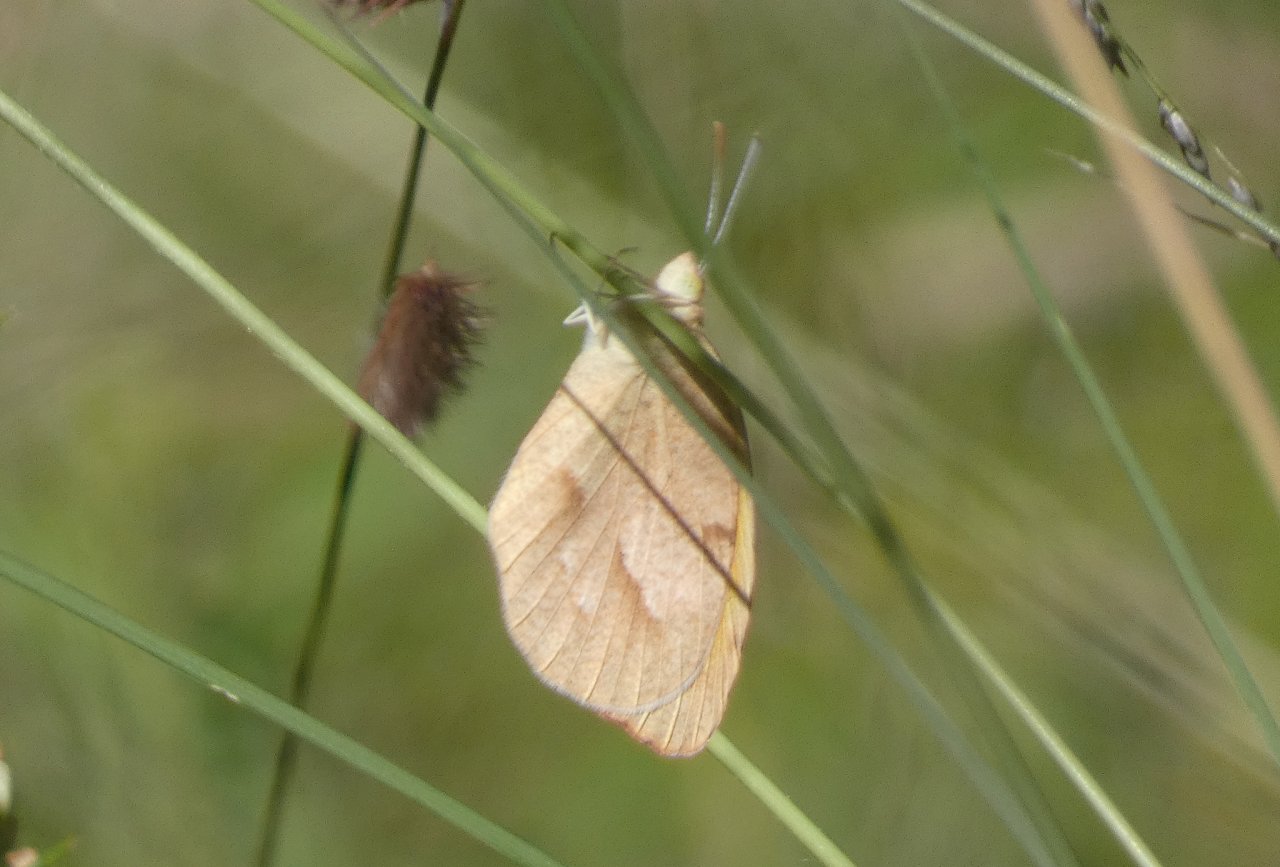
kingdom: Animalia
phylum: Arthropoda
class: Insecta
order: Lepidoptera
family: Pieridae
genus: Abaeis
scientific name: Abaeis nicippe
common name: Sleepy Orange
